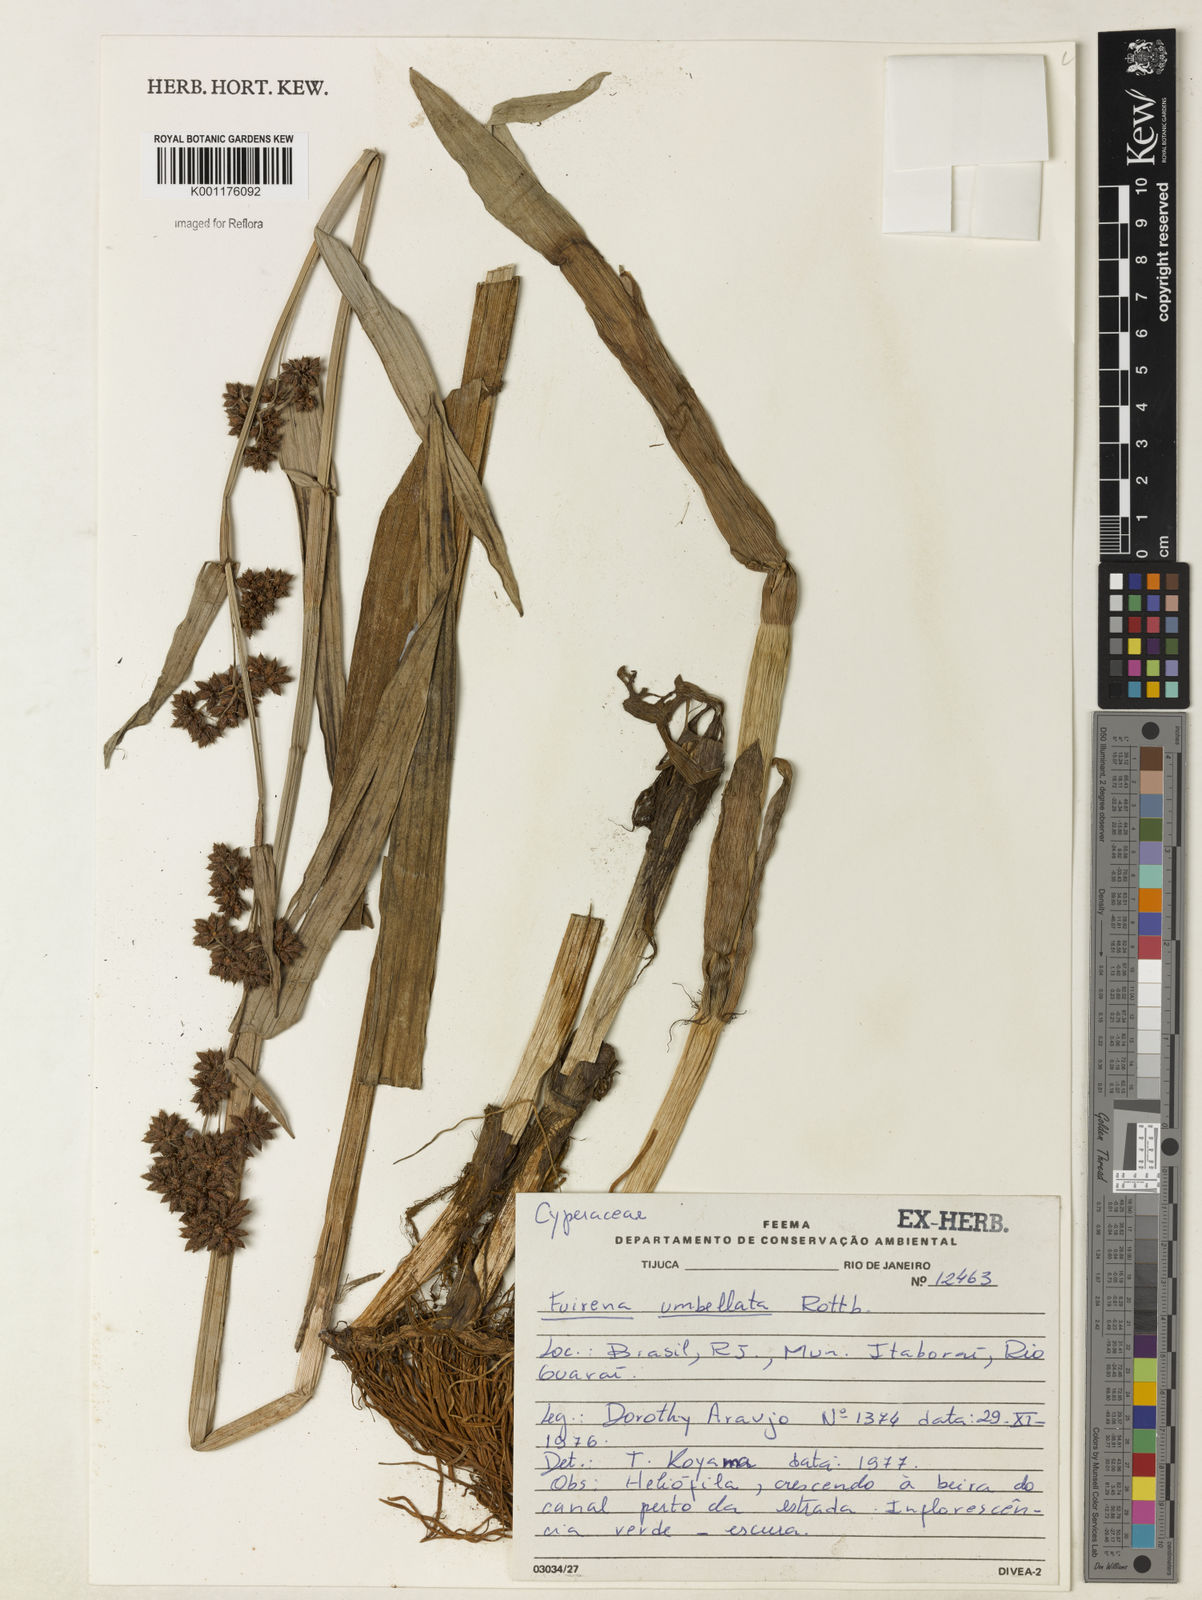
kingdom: Plantae
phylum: Tracheophyta
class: Liliopsida
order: Poales
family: Cyperaceae
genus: Fuirena
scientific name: Fuirena umbellata
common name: Yefen
